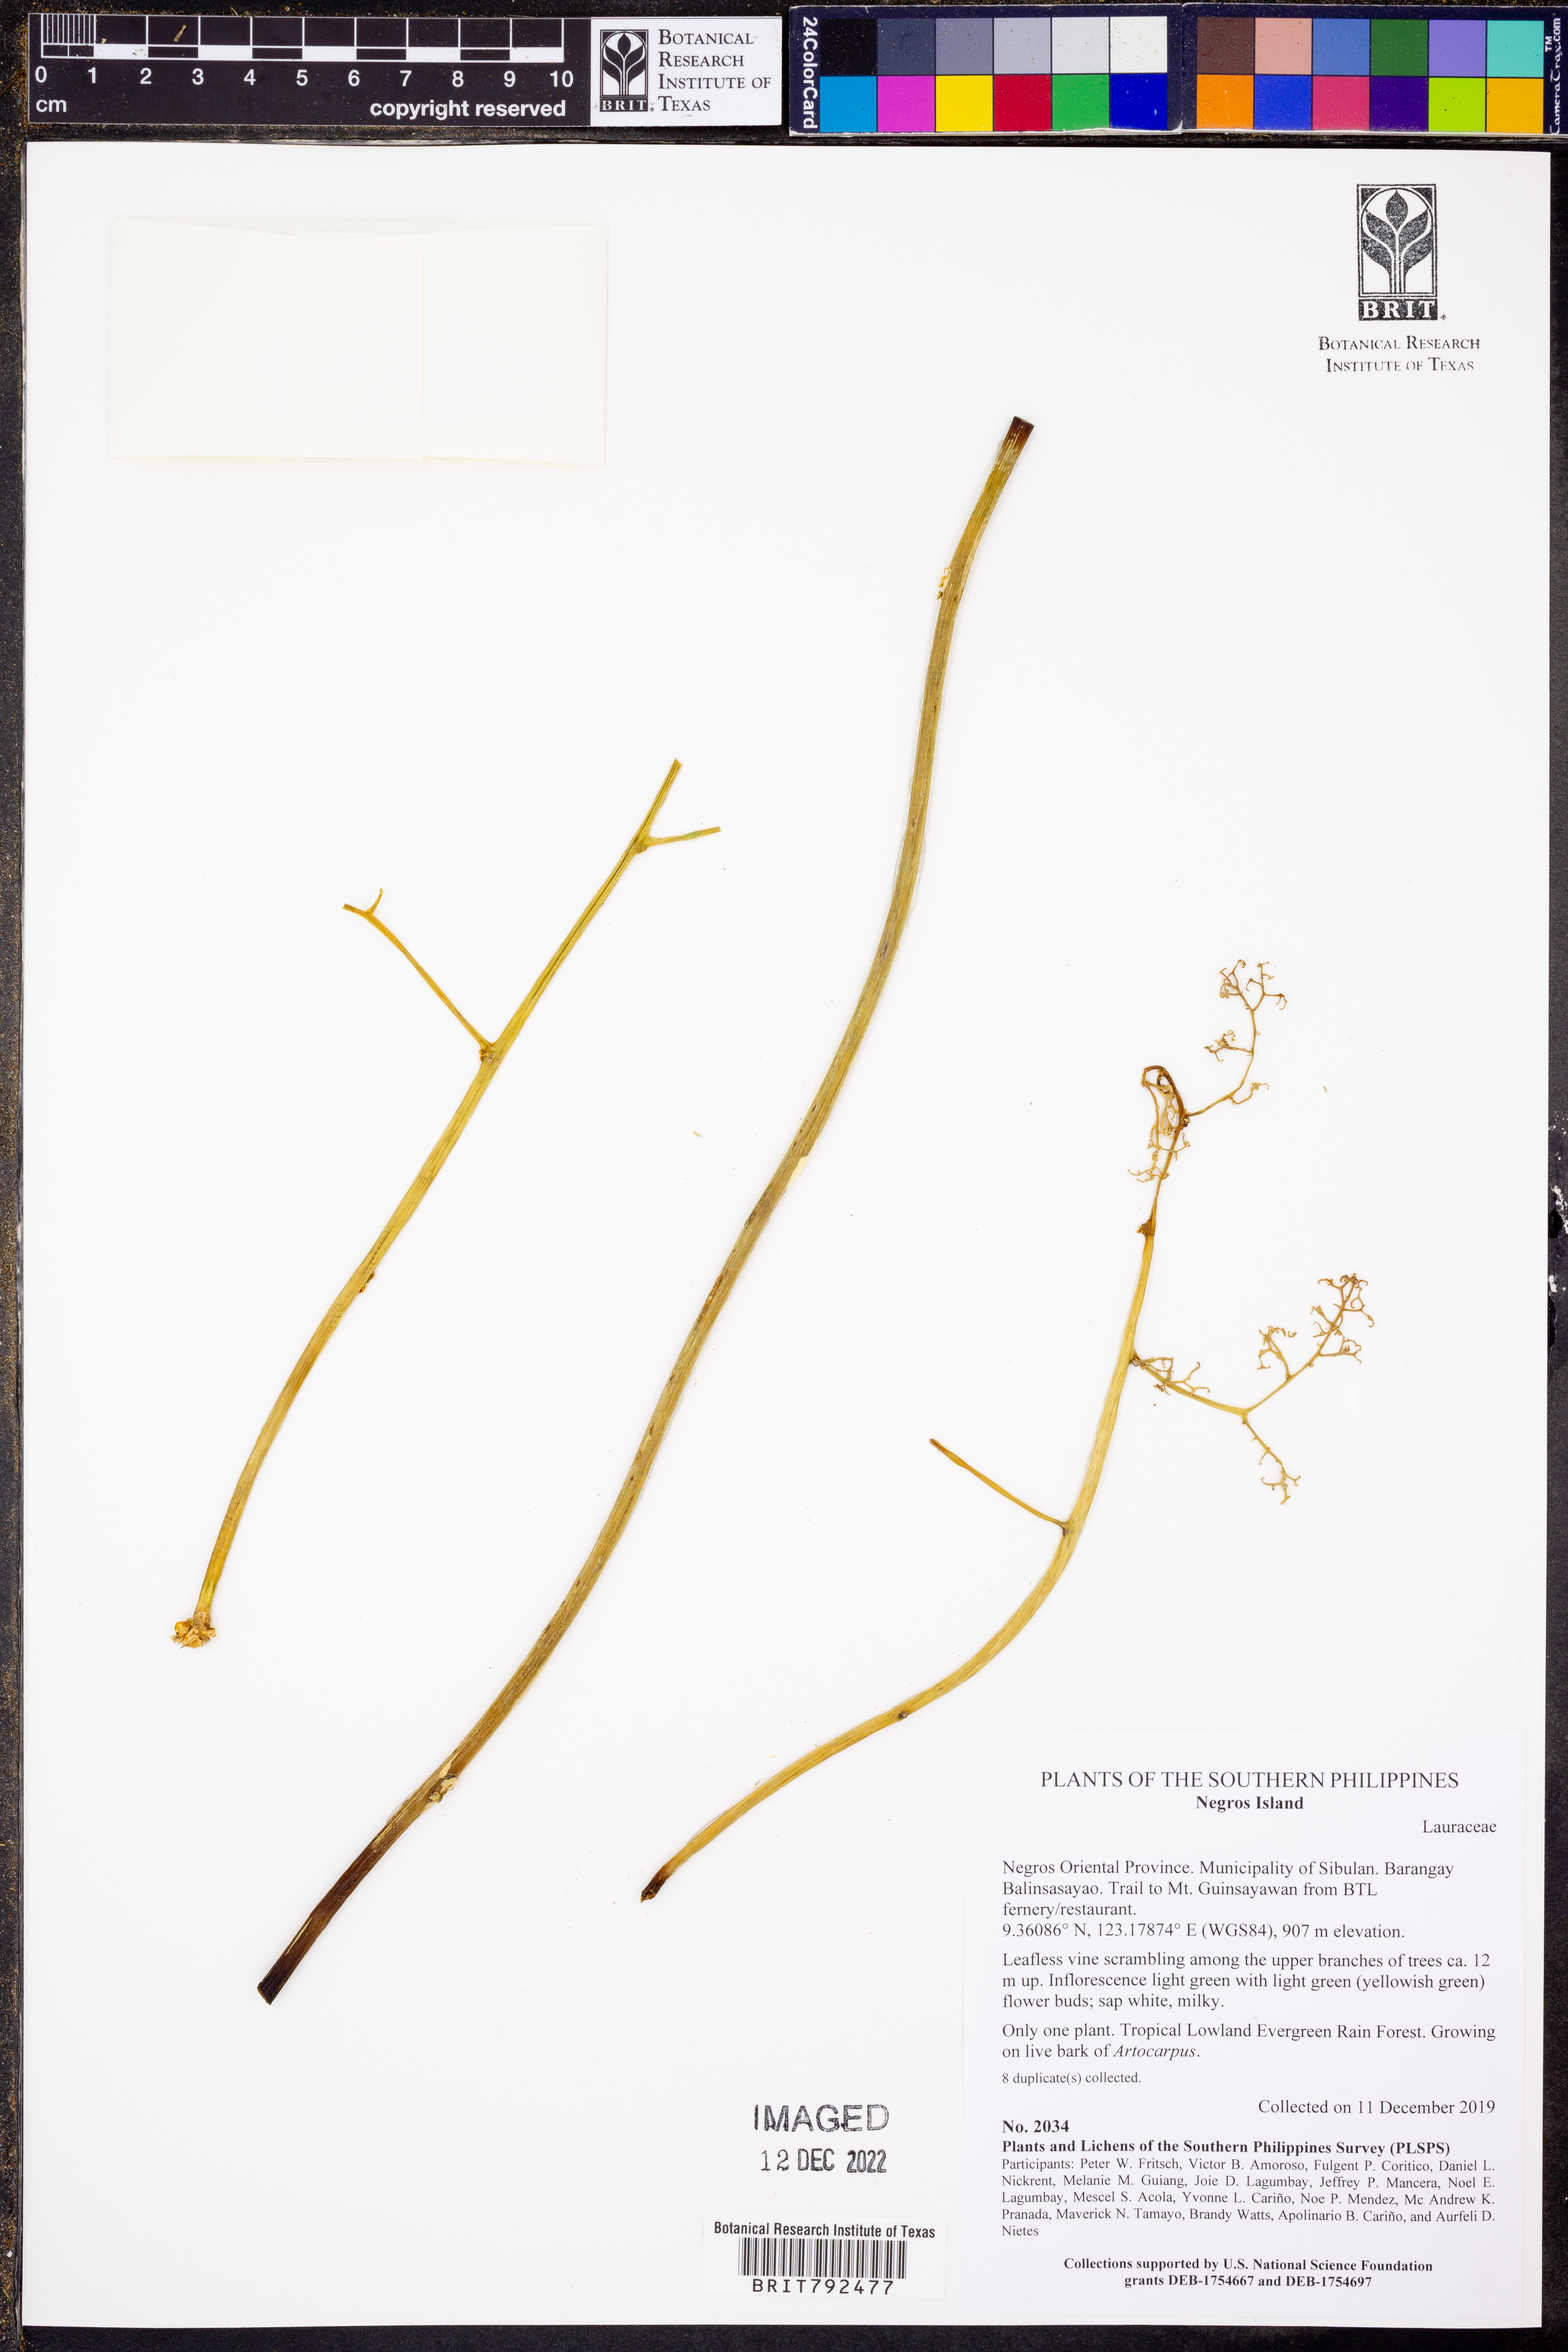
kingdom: Plantae
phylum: Tracheophyta
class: Magnoliopsida
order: Laurales
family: Lauraceae
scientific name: Lauraceae
